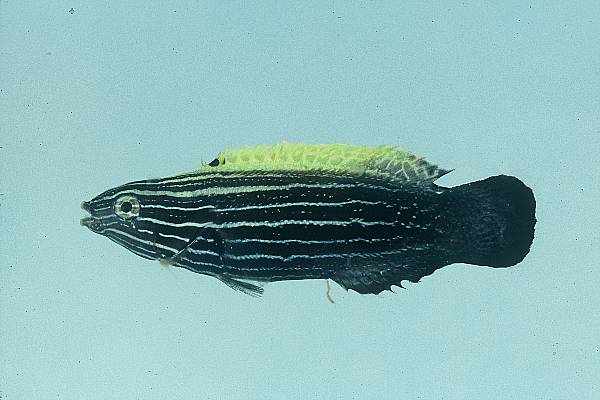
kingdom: Animalia
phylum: Chordata
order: Perciformes
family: Labridae
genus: Labropsis
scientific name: Labropsis xanthonota
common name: Blacklobe wrasse
